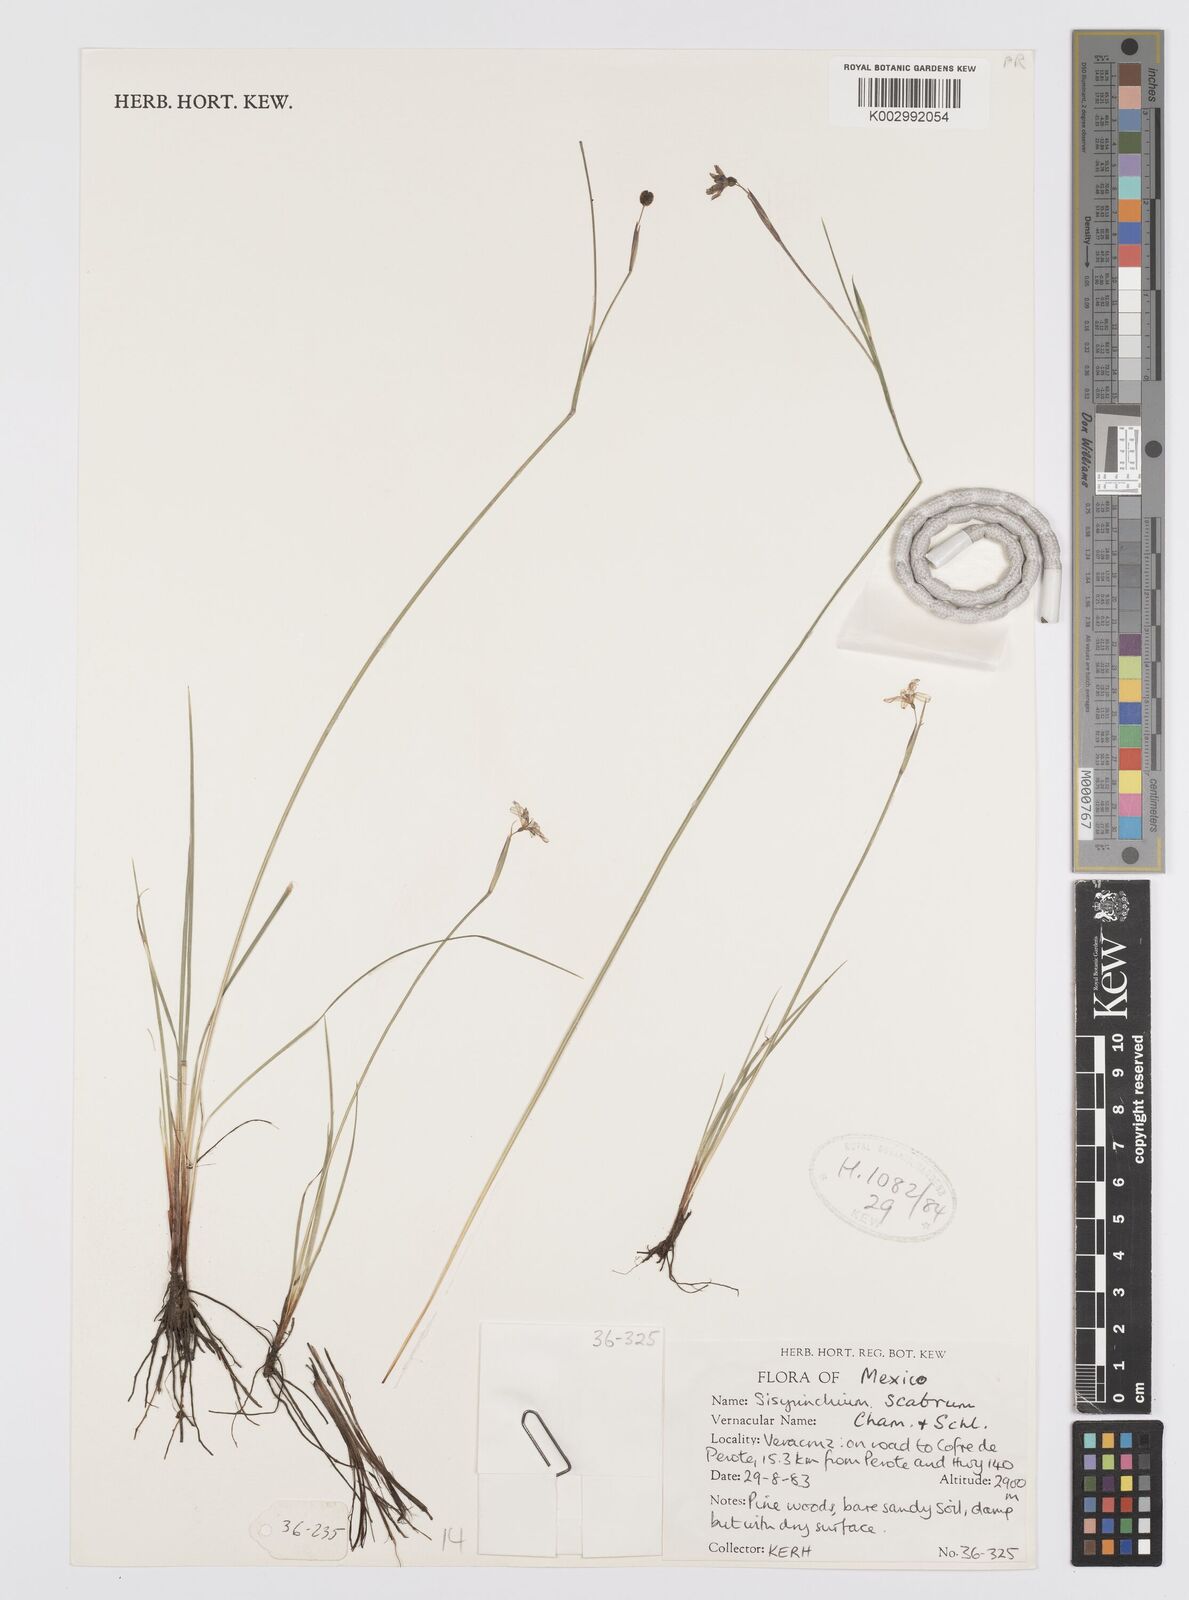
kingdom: Plantae
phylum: Tracheophyta
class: Liliopsida
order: Asparagales
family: Iridaceae
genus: Sisyrinchium
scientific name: Sisyrinchium scabrum
